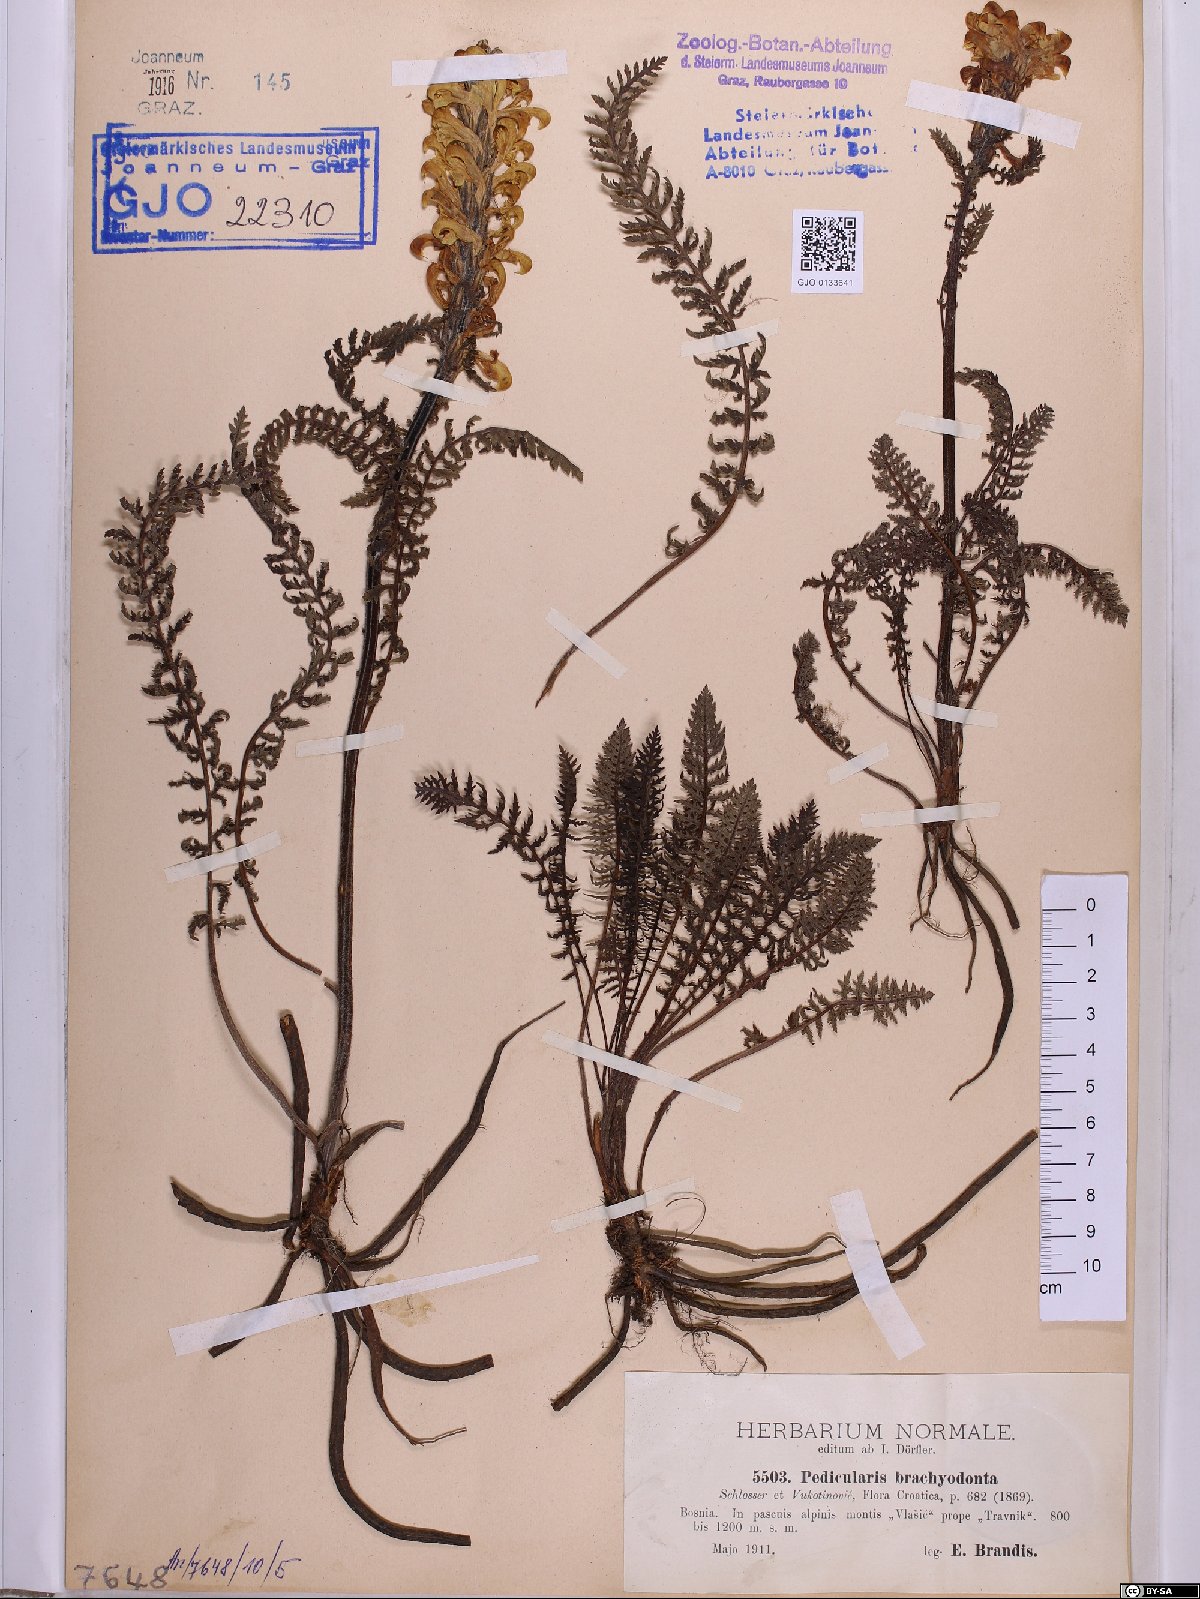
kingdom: Plantae
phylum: Tracheophyta
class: Magnoliopsida
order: Lamiales
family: Orobanchaceae
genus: Pedicularis
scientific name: Pedicularis brachyodonta
